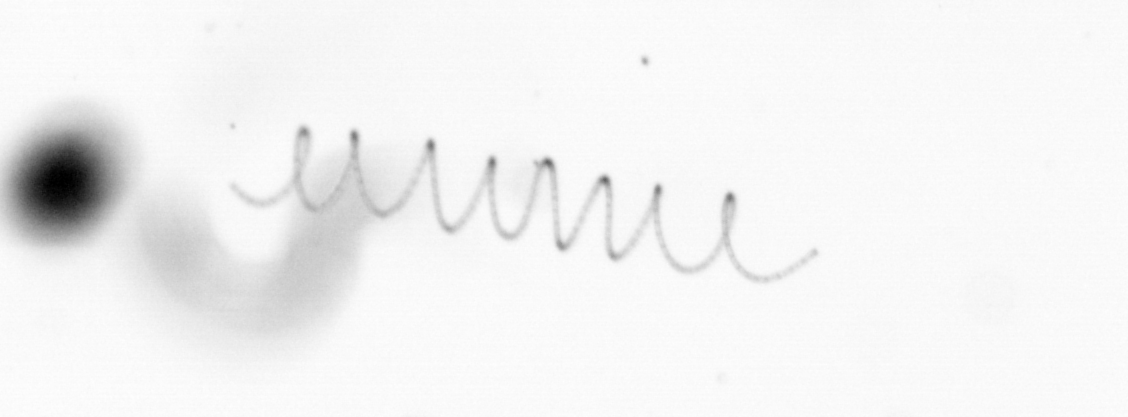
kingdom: Chromista
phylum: Ochrophyta
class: Bacillariophyceae
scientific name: Bacillariophyceae
